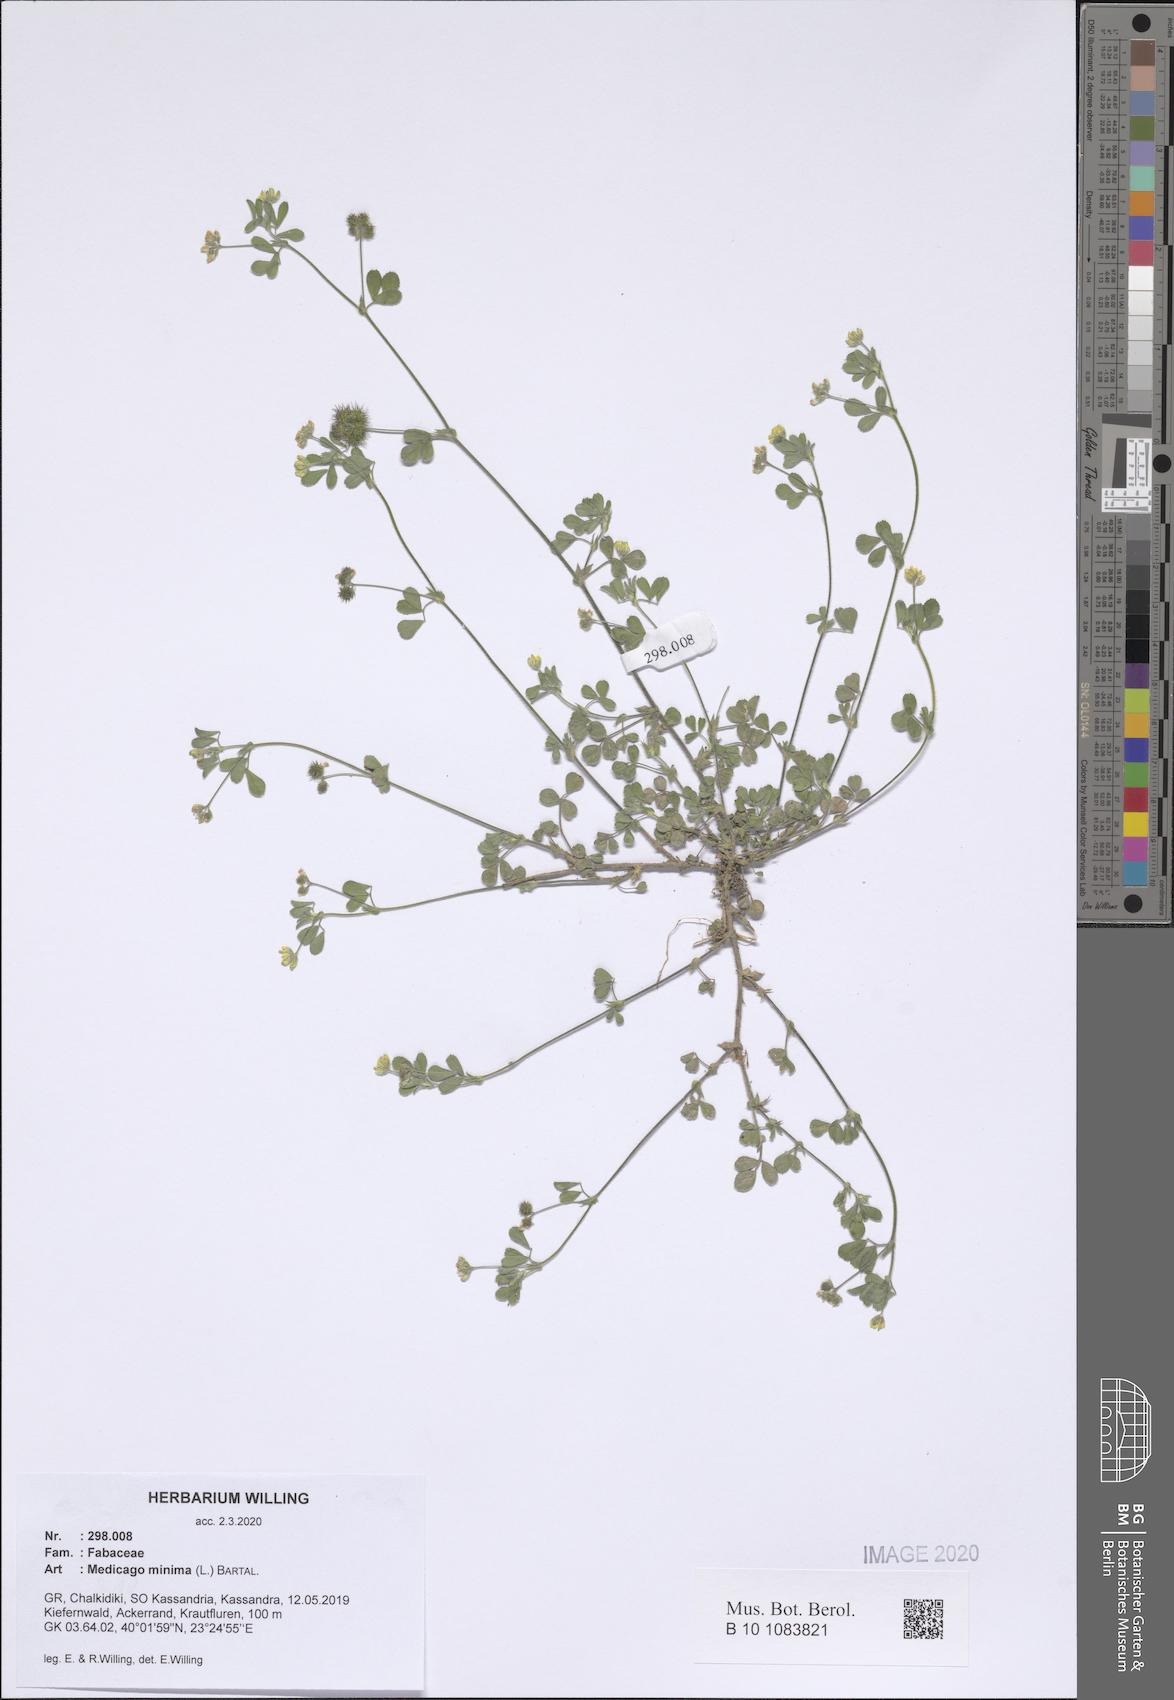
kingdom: Plantae
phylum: Tracheophyta
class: Magnoliopsida
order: Fabales
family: Fabaceae
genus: Medicago
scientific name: Medicago minima
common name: Little bur-clover
